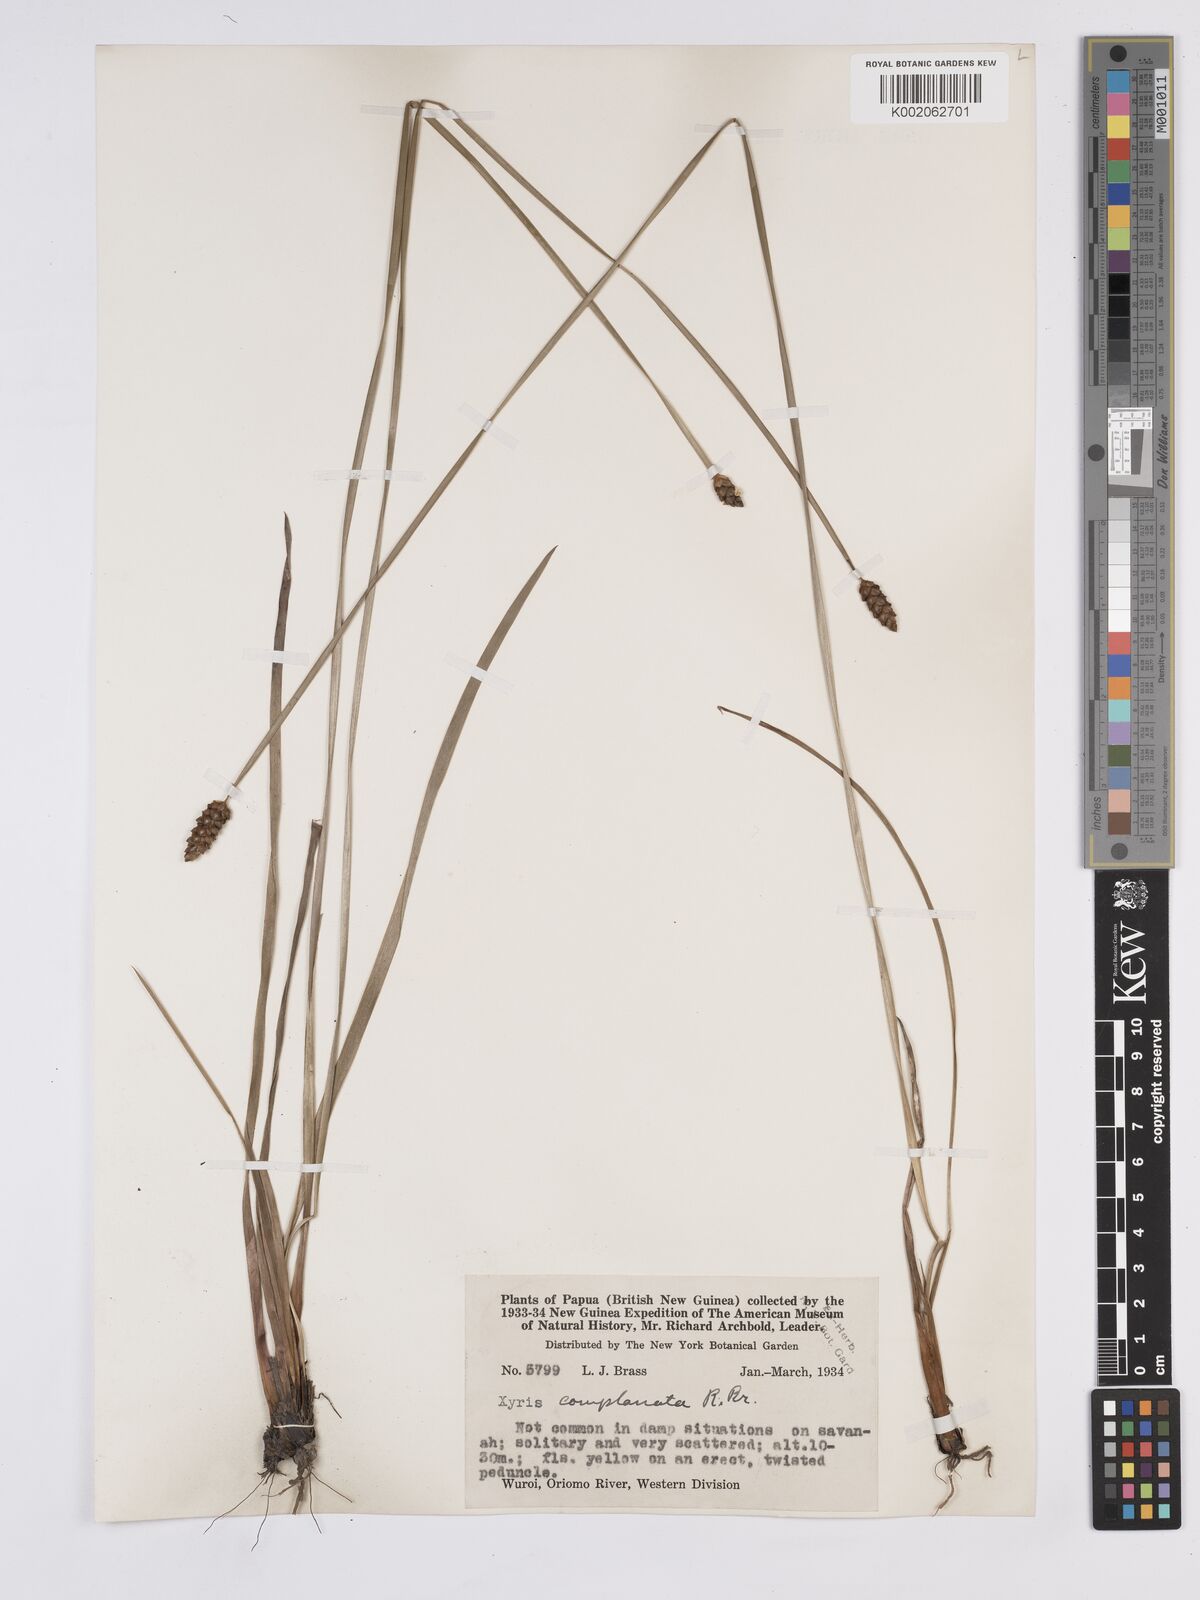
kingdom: Plantae
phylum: Tracheophyta
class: Liliopsida
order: Poales
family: Xyridaceae
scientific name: Xyridaceae
